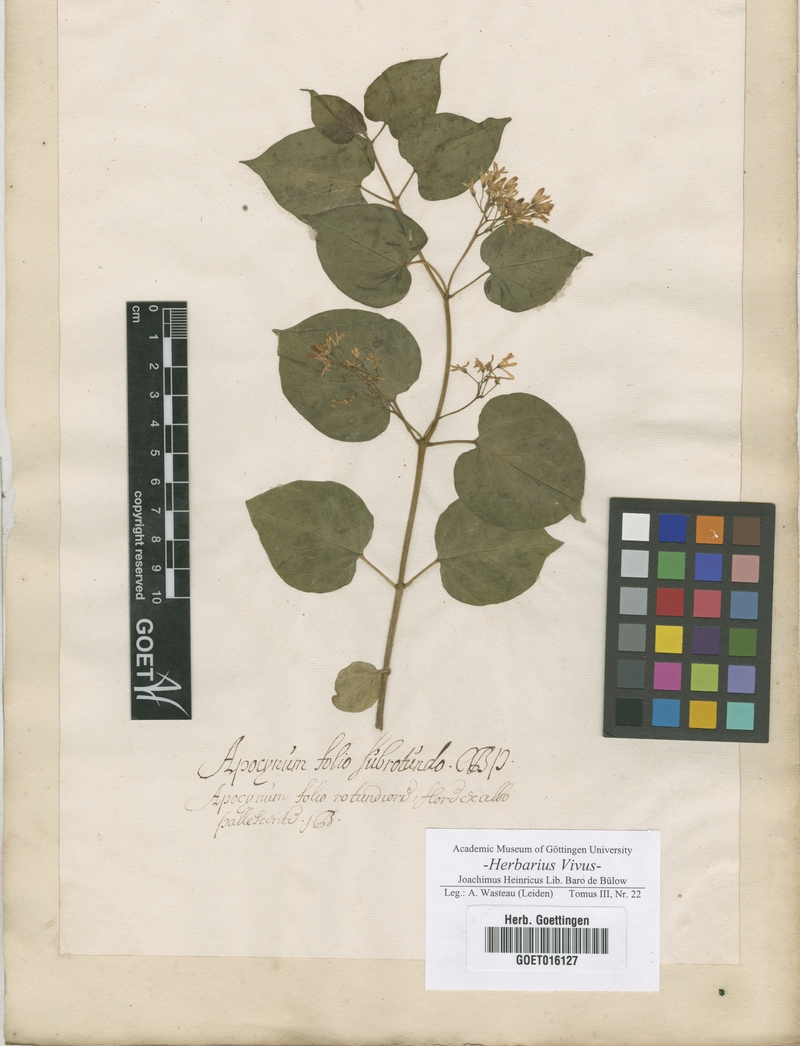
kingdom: Plantae
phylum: Tracheophyta
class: Magnoliopsida
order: Gentianales
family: Apocynaceae
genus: Apocynum
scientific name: Apocynum
